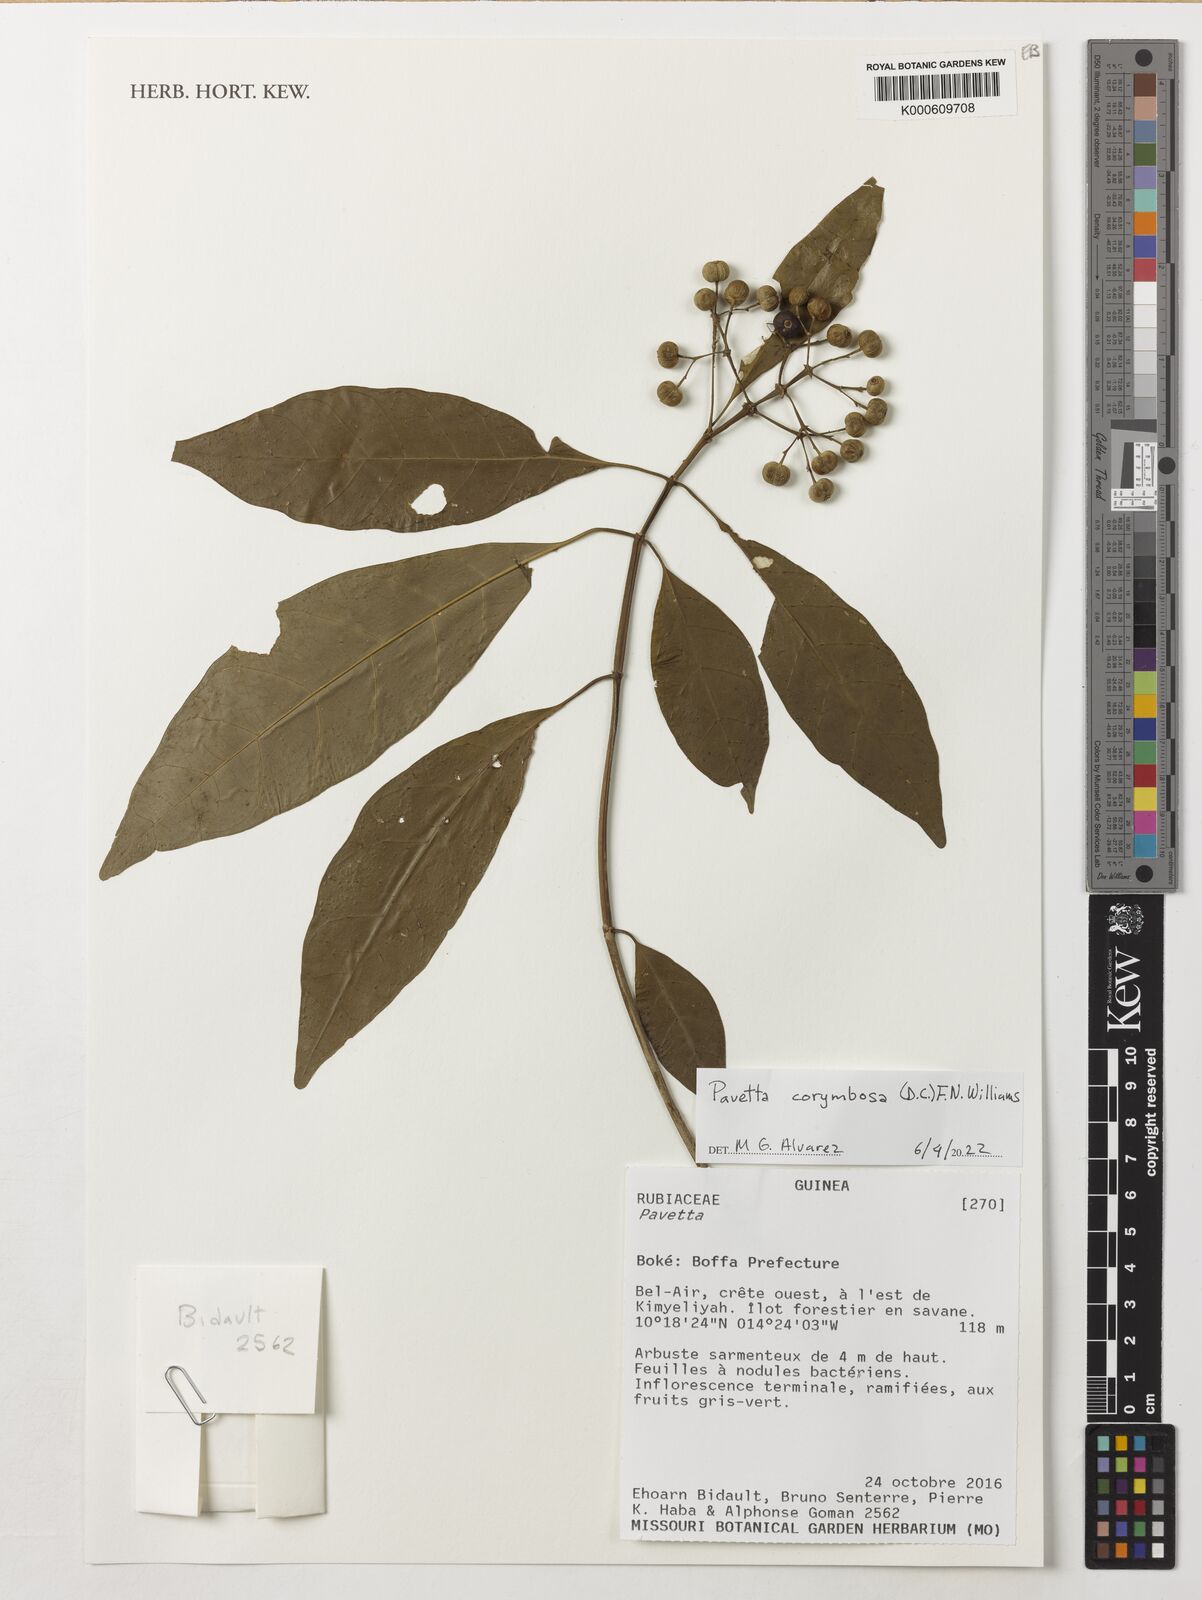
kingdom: Plantae
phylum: Tracheophyta
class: Magnoliopsida
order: Gentianales
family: Rubiaceae
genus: Pavetta
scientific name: Pavetta corymbosa
